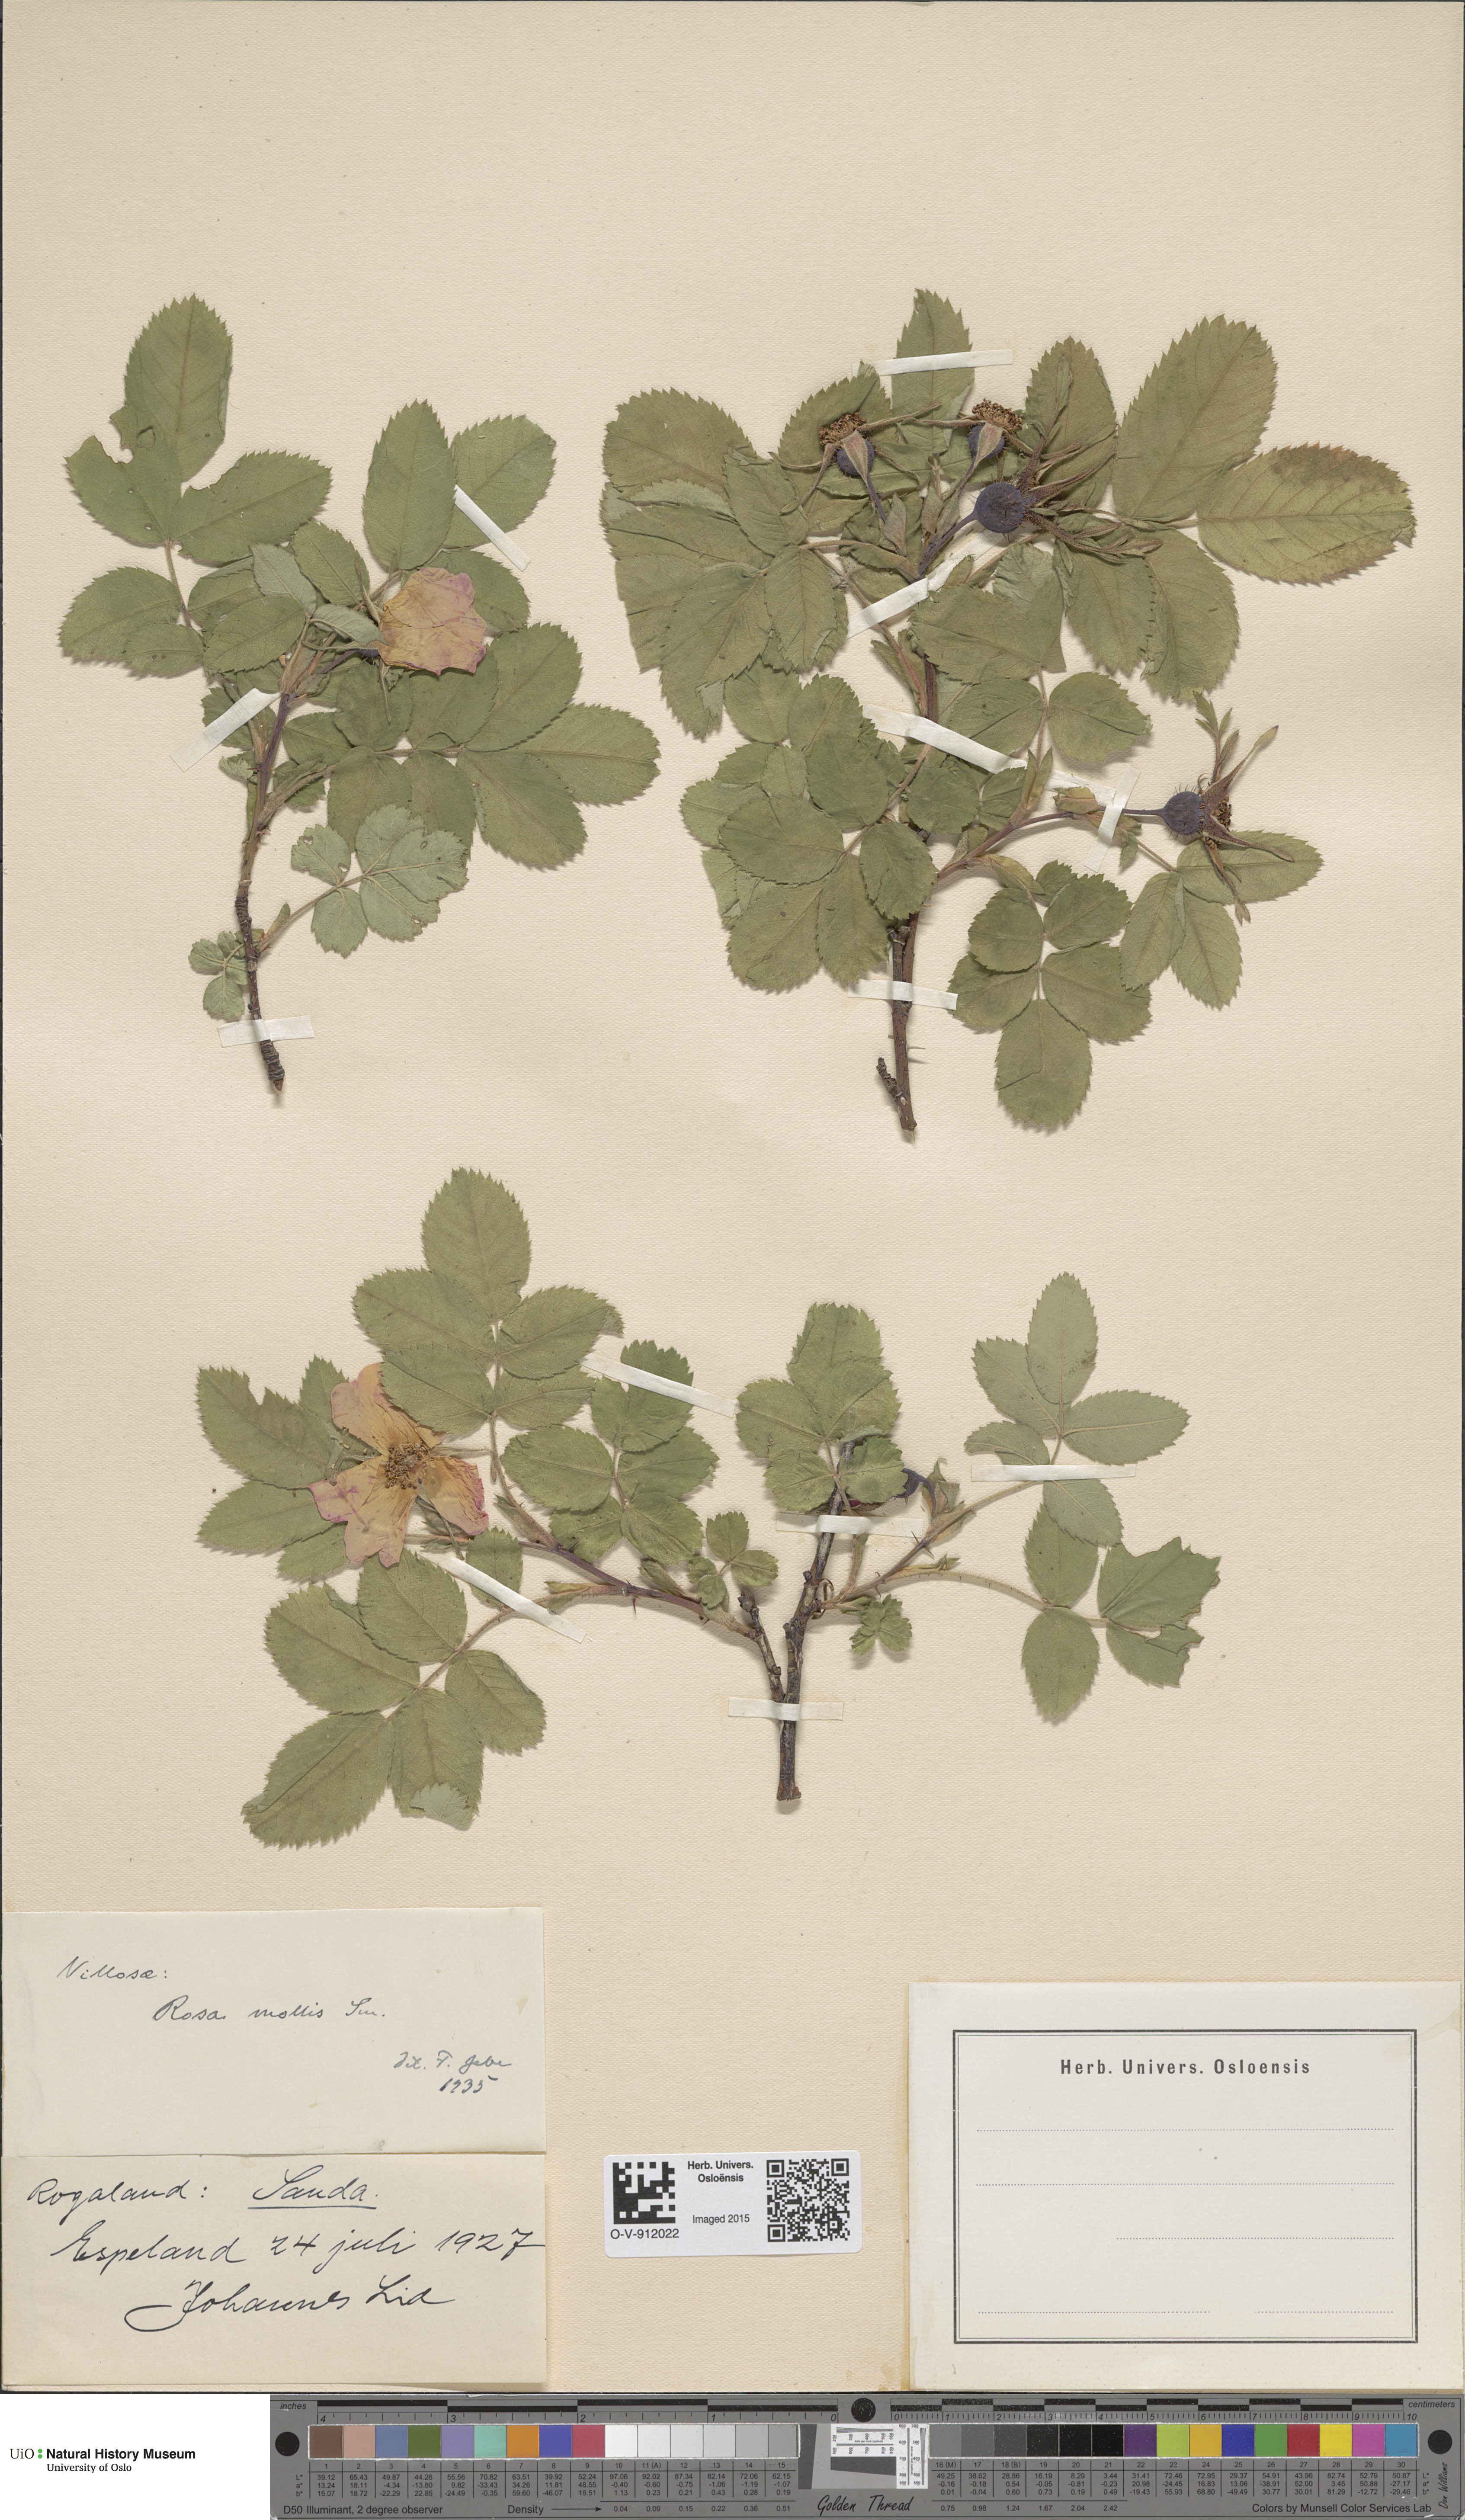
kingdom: Plantae
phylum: Tracheophyta
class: Magnoliopsida
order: Rosales
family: Rosaceae
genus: Rosa
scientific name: Rosa mollis
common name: Rose
